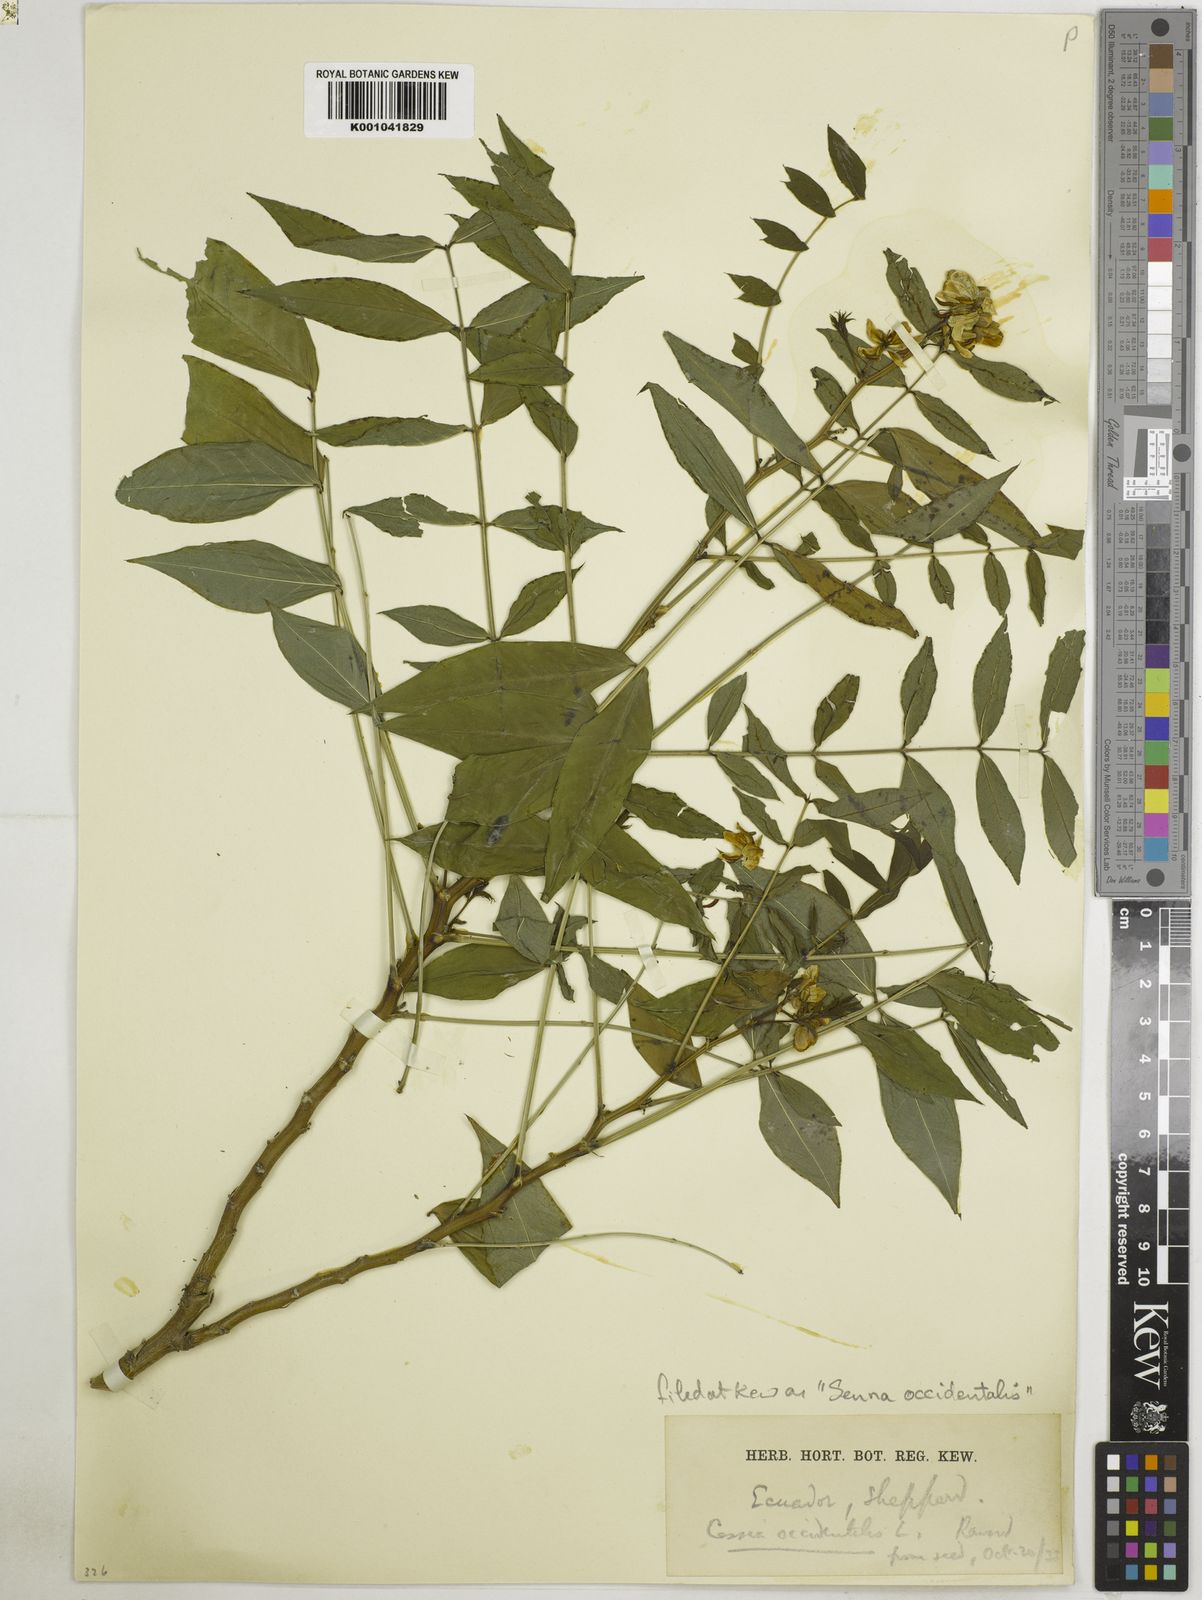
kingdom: Plantae
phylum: Tracheophyta
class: Magnoliopsida
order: Fabales
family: Fabaceae
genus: Senna
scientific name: Senna occidentalis
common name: Septicweed
